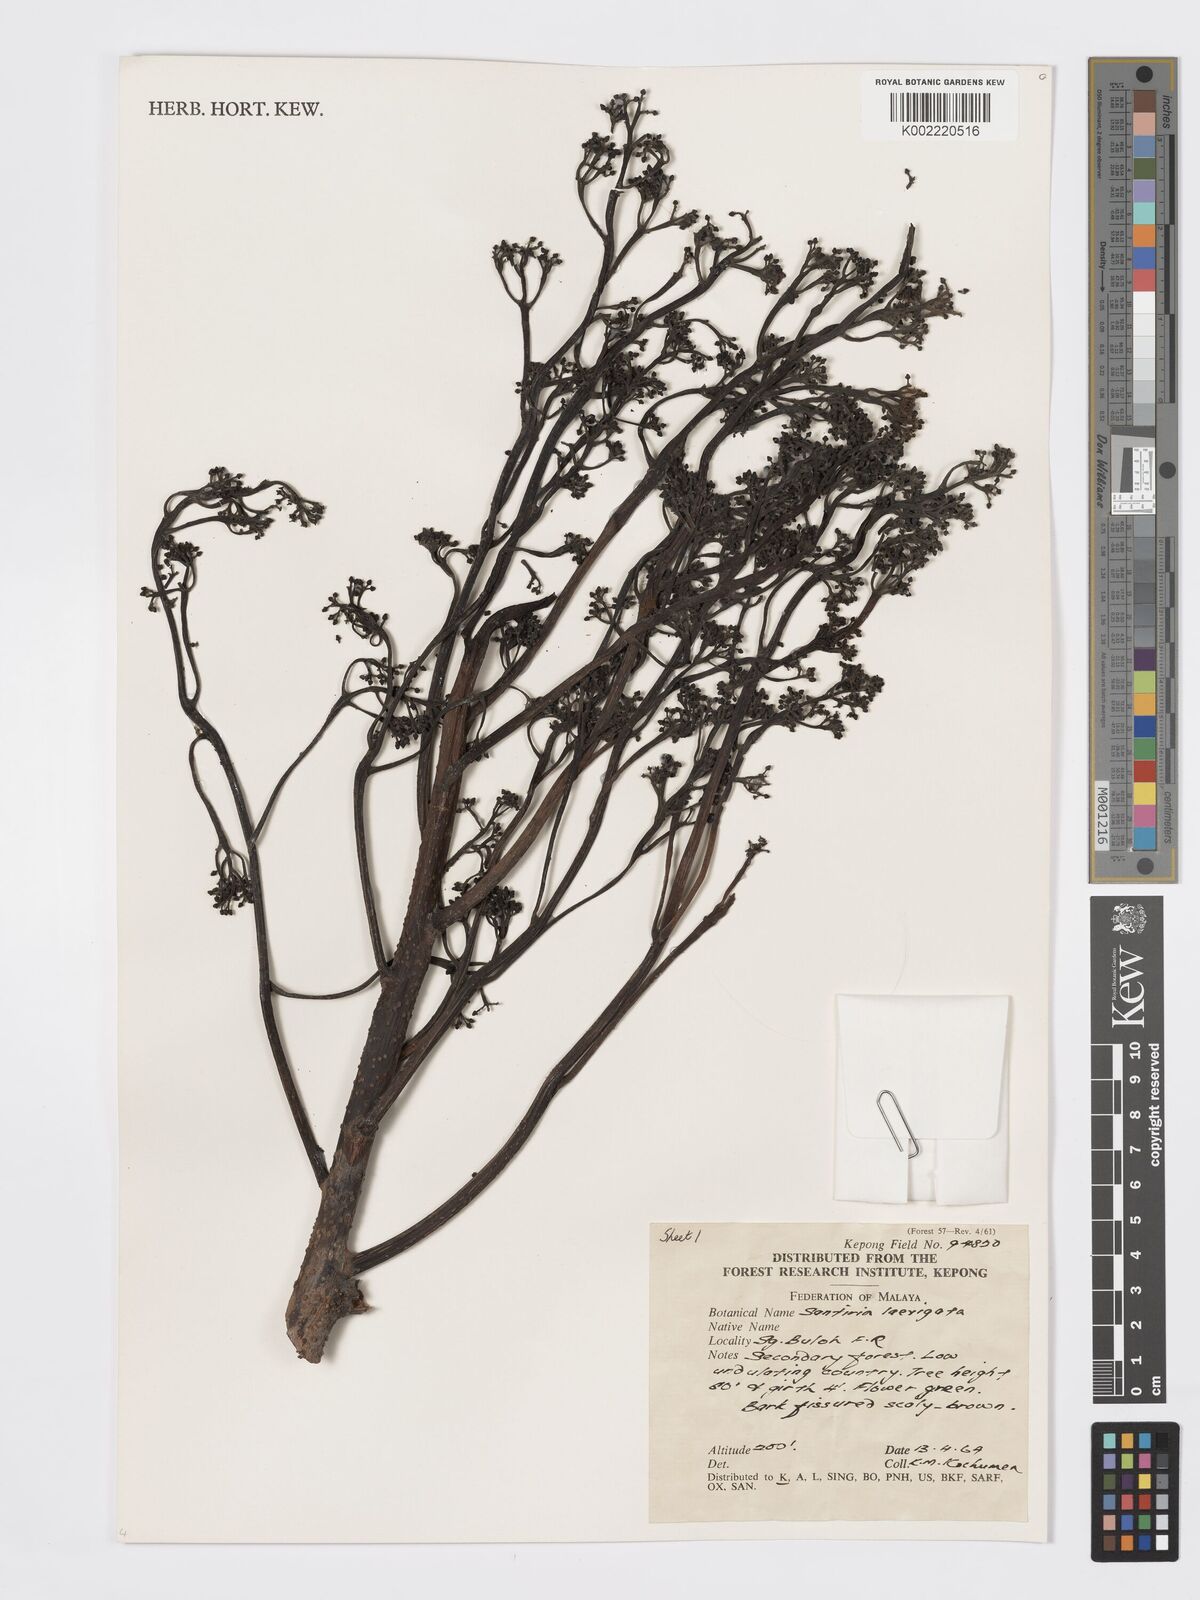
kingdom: Plantae
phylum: Tracheophyta
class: Magnoliopsida
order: Sapindales
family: Burseraceae
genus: Santiria
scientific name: Santiria laevigata
